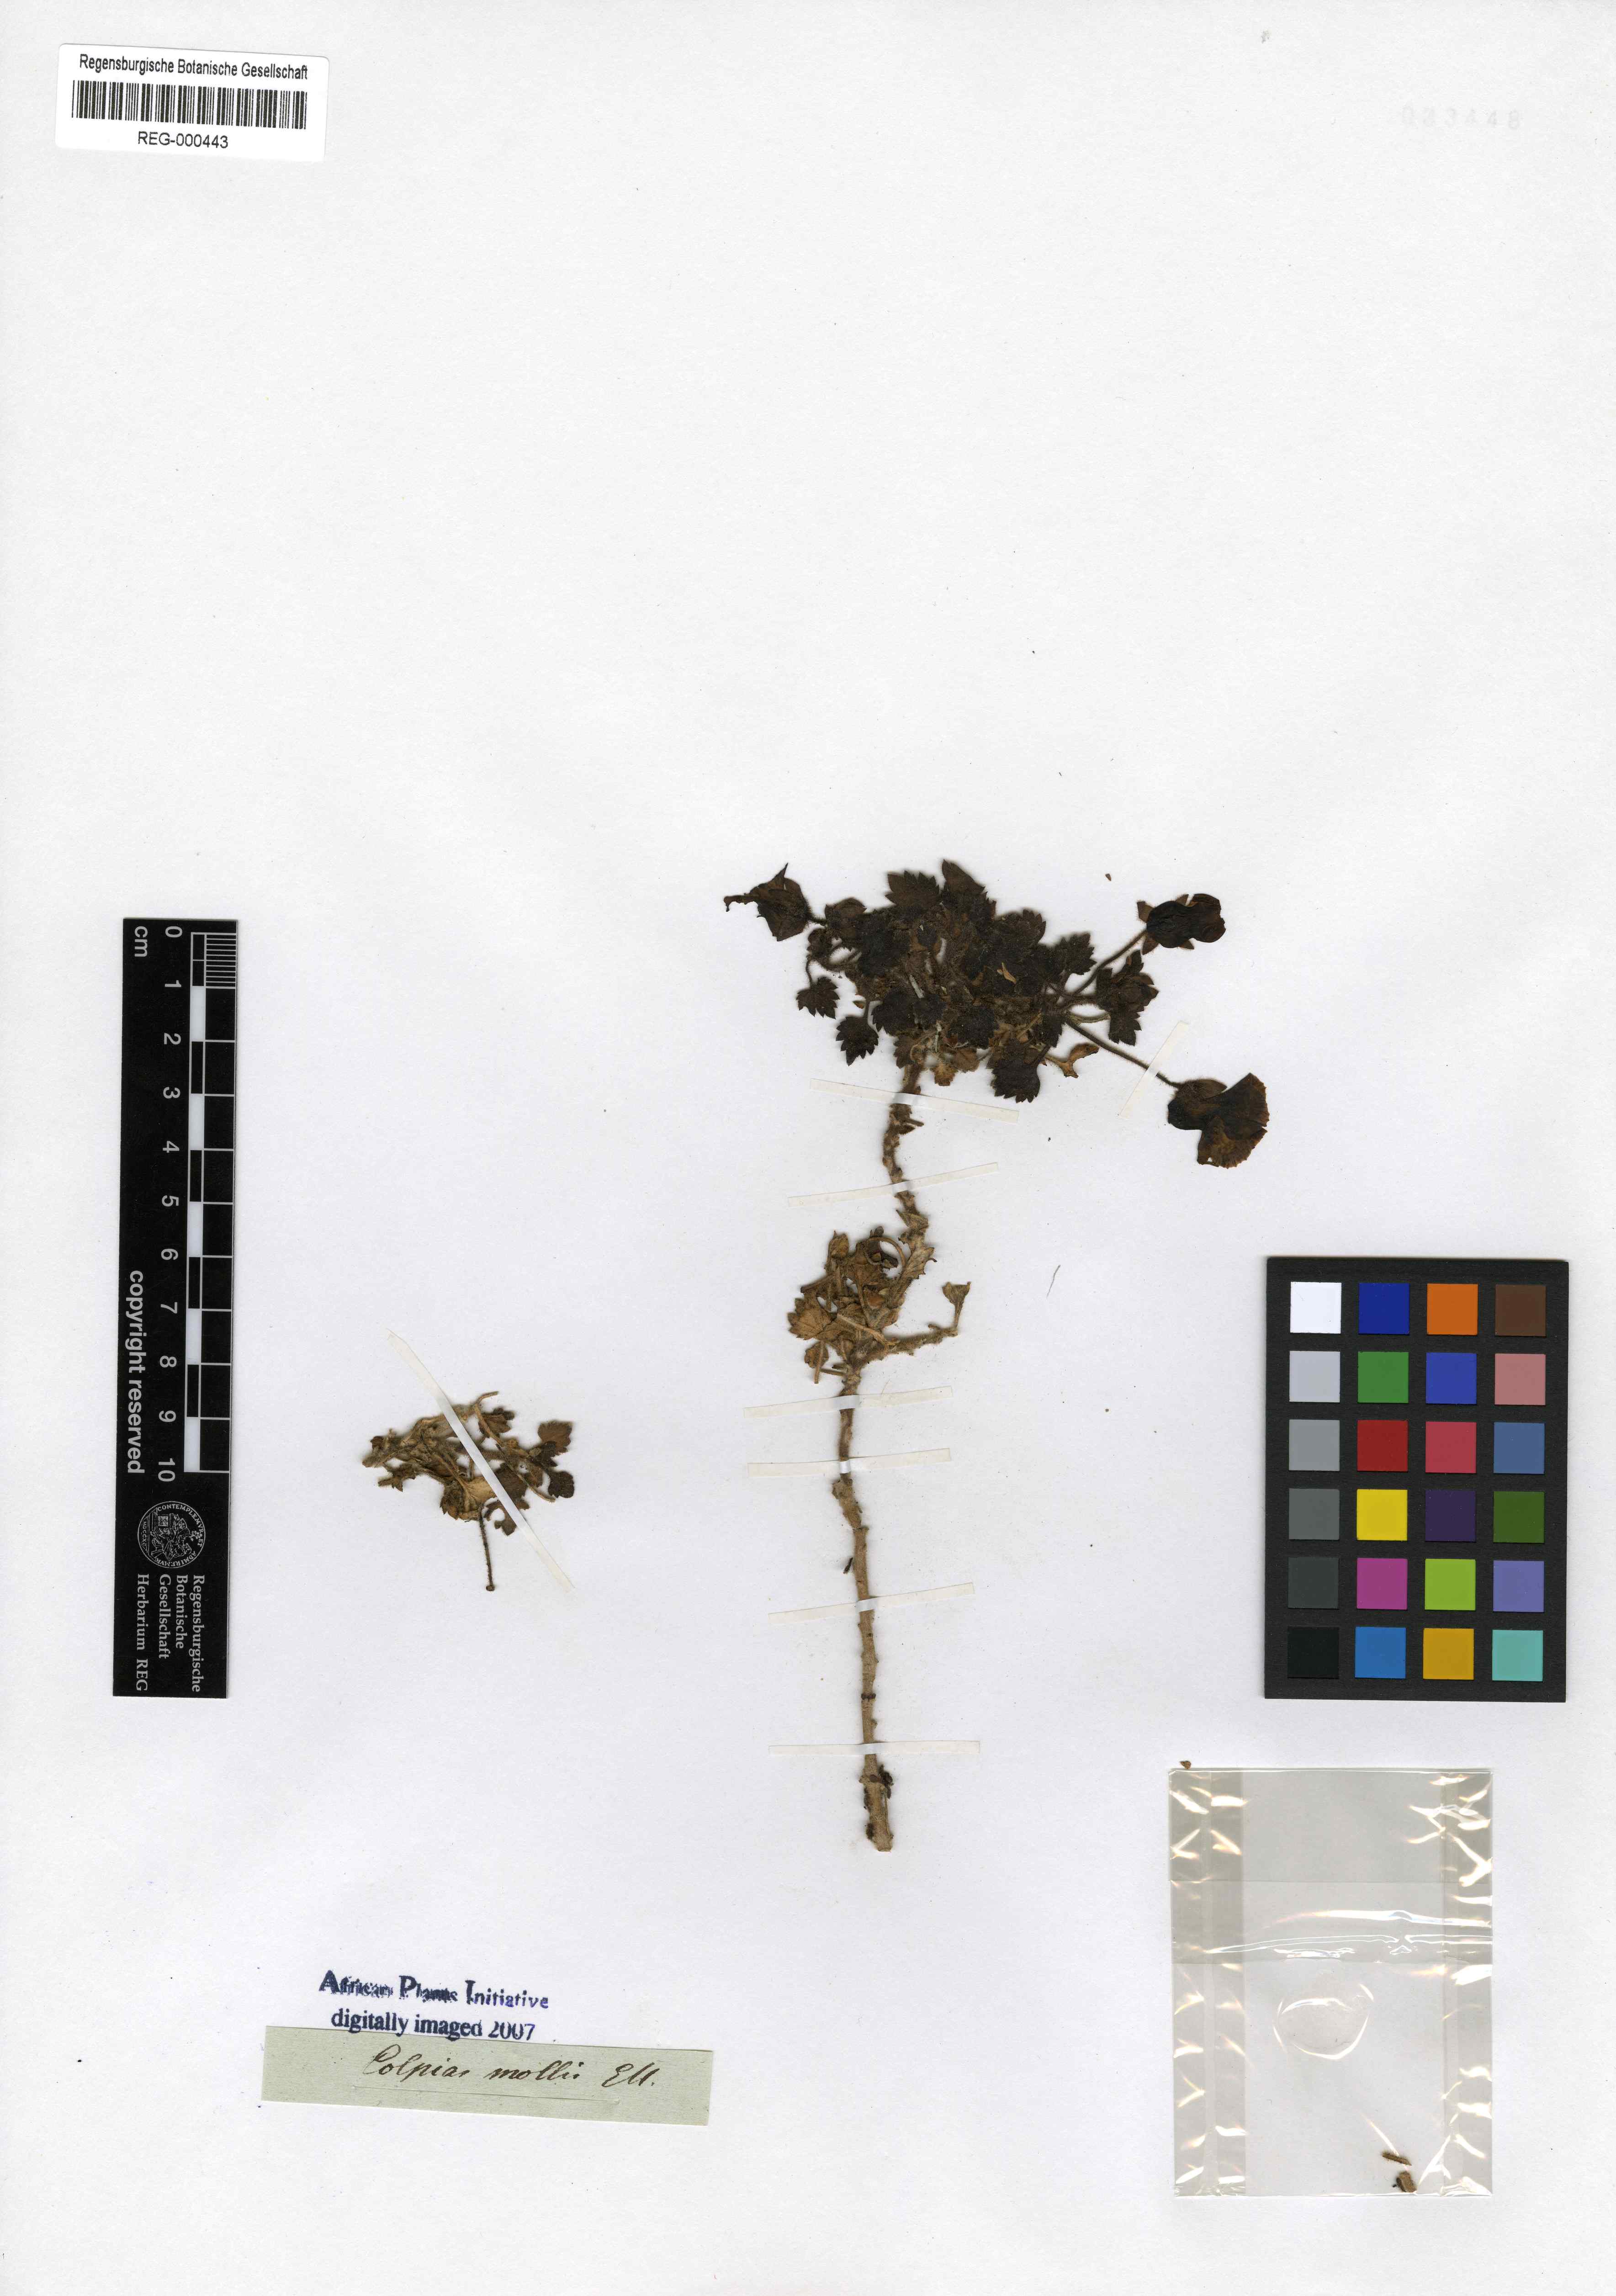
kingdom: Plantae
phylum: Tracheophyta
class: Magnoliopsida
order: Lamiales
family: Scrophulariaceae
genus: Colpias
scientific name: Colpias mollis
